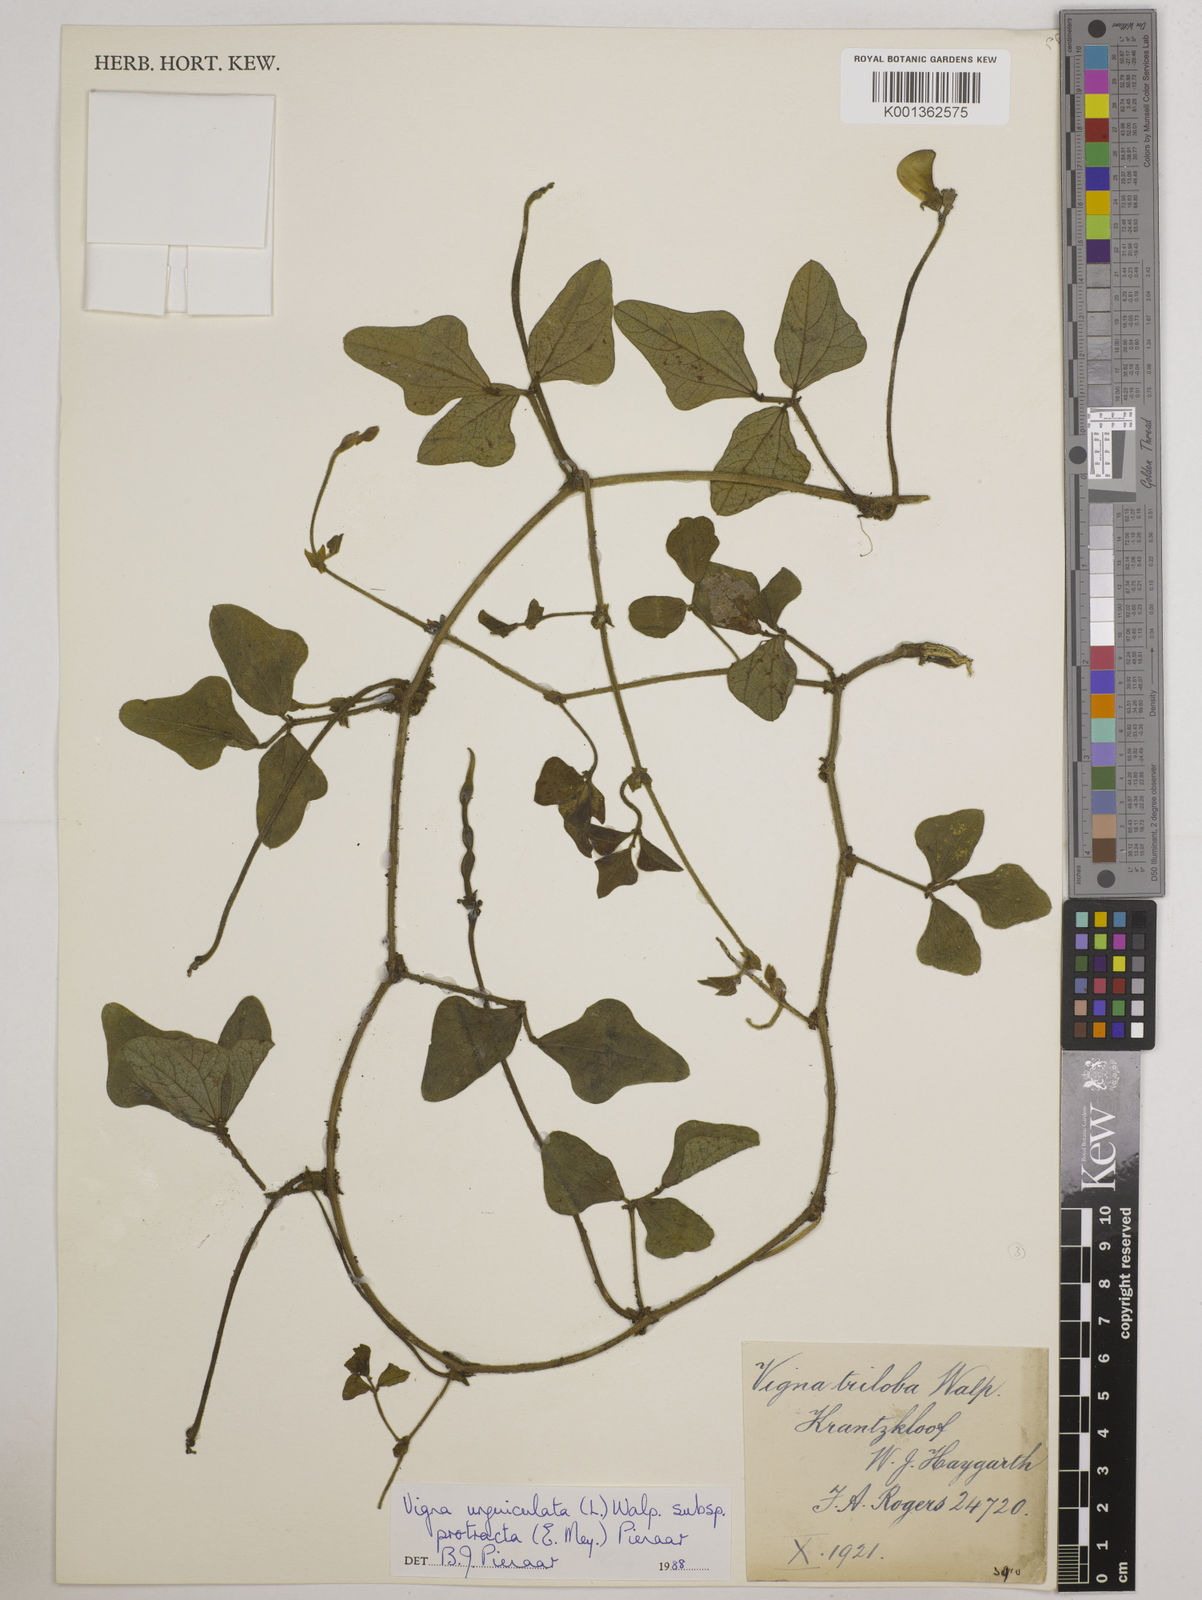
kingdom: Plantae
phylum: Tracheophyta
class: Magnoliopsida
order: Fabales
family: Fabaceae
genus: Vigna
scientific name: Vigna unguiculata
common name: Cowpea
